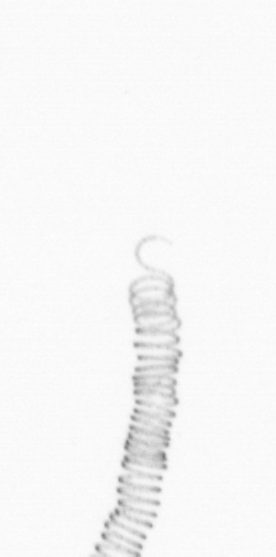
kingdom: Chromista
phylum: Ochrophyta
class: Bacillariophyceae
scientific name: Bacillariophyceae
